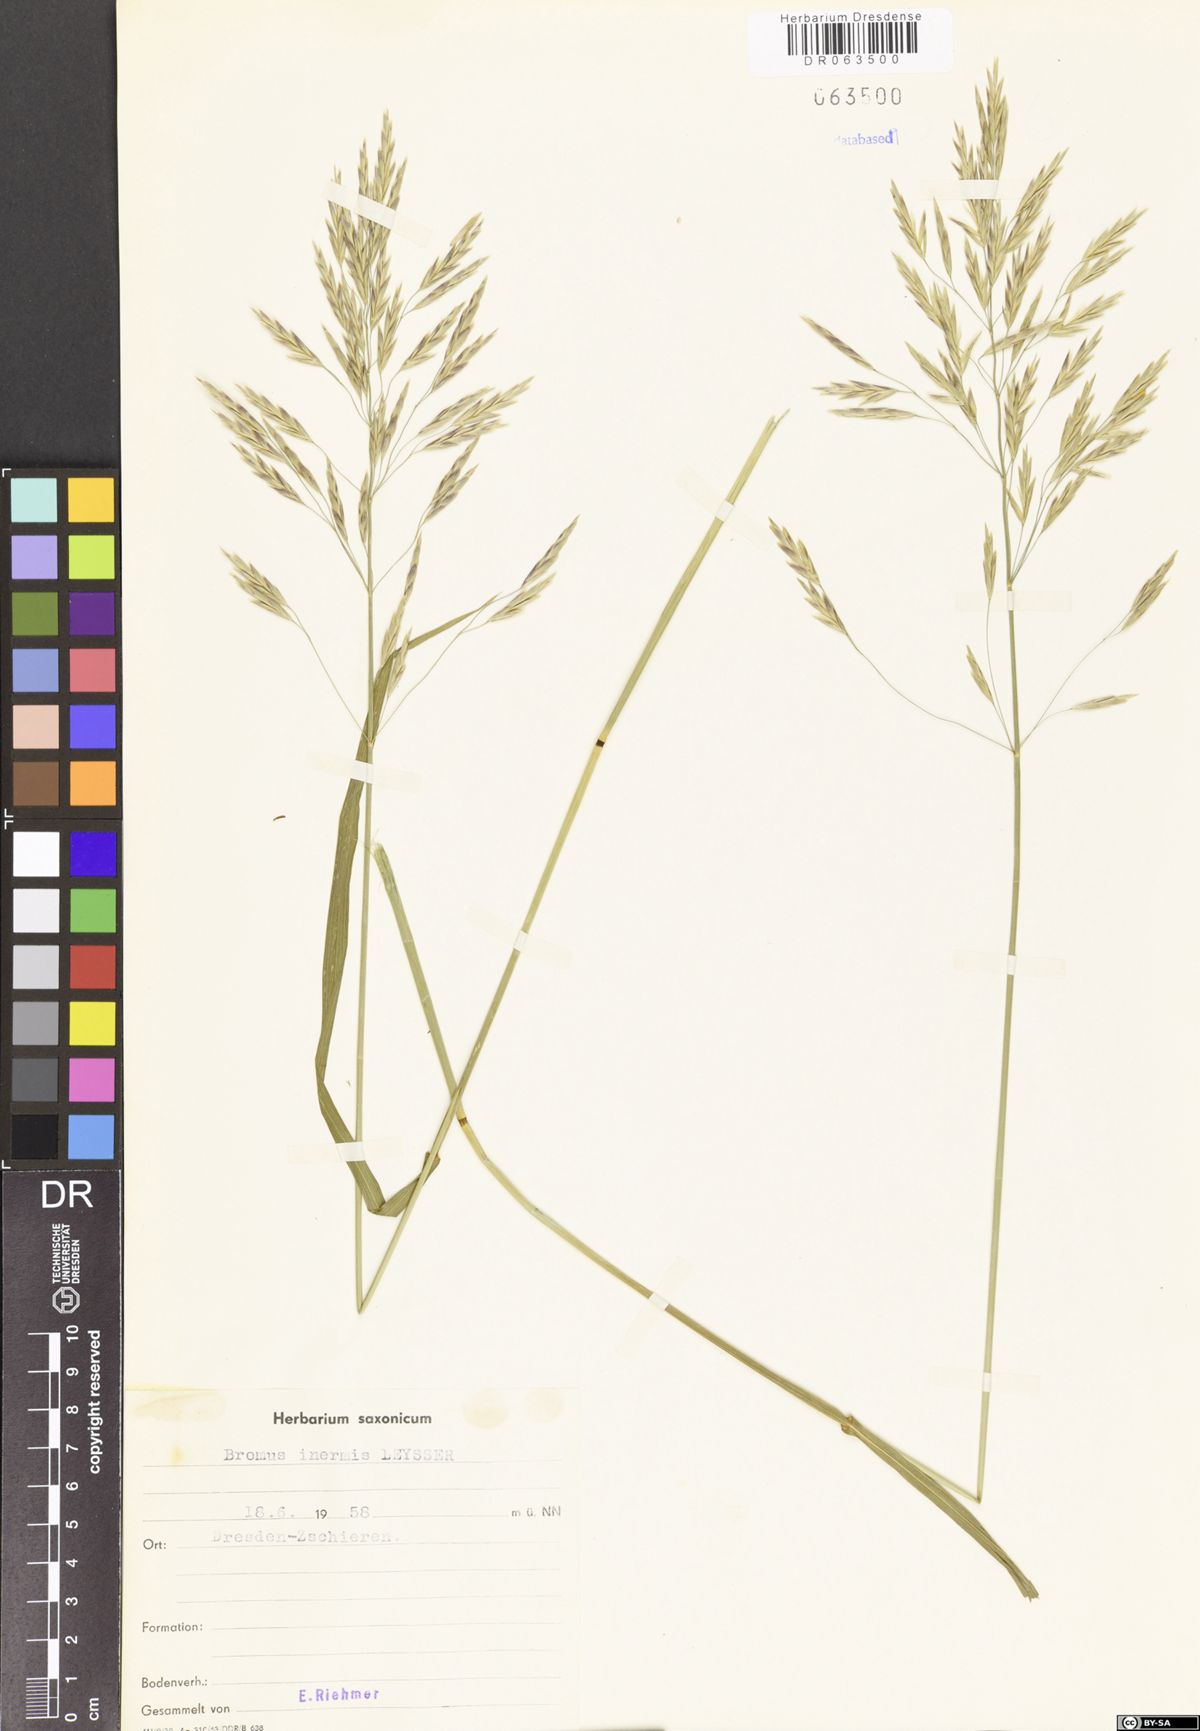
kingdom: Plantae
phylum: Tracheophyta
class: Liliopsida
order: Poales
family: Poaceae
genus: Bromus
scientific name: Bromus inermis
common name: Smooth brome
